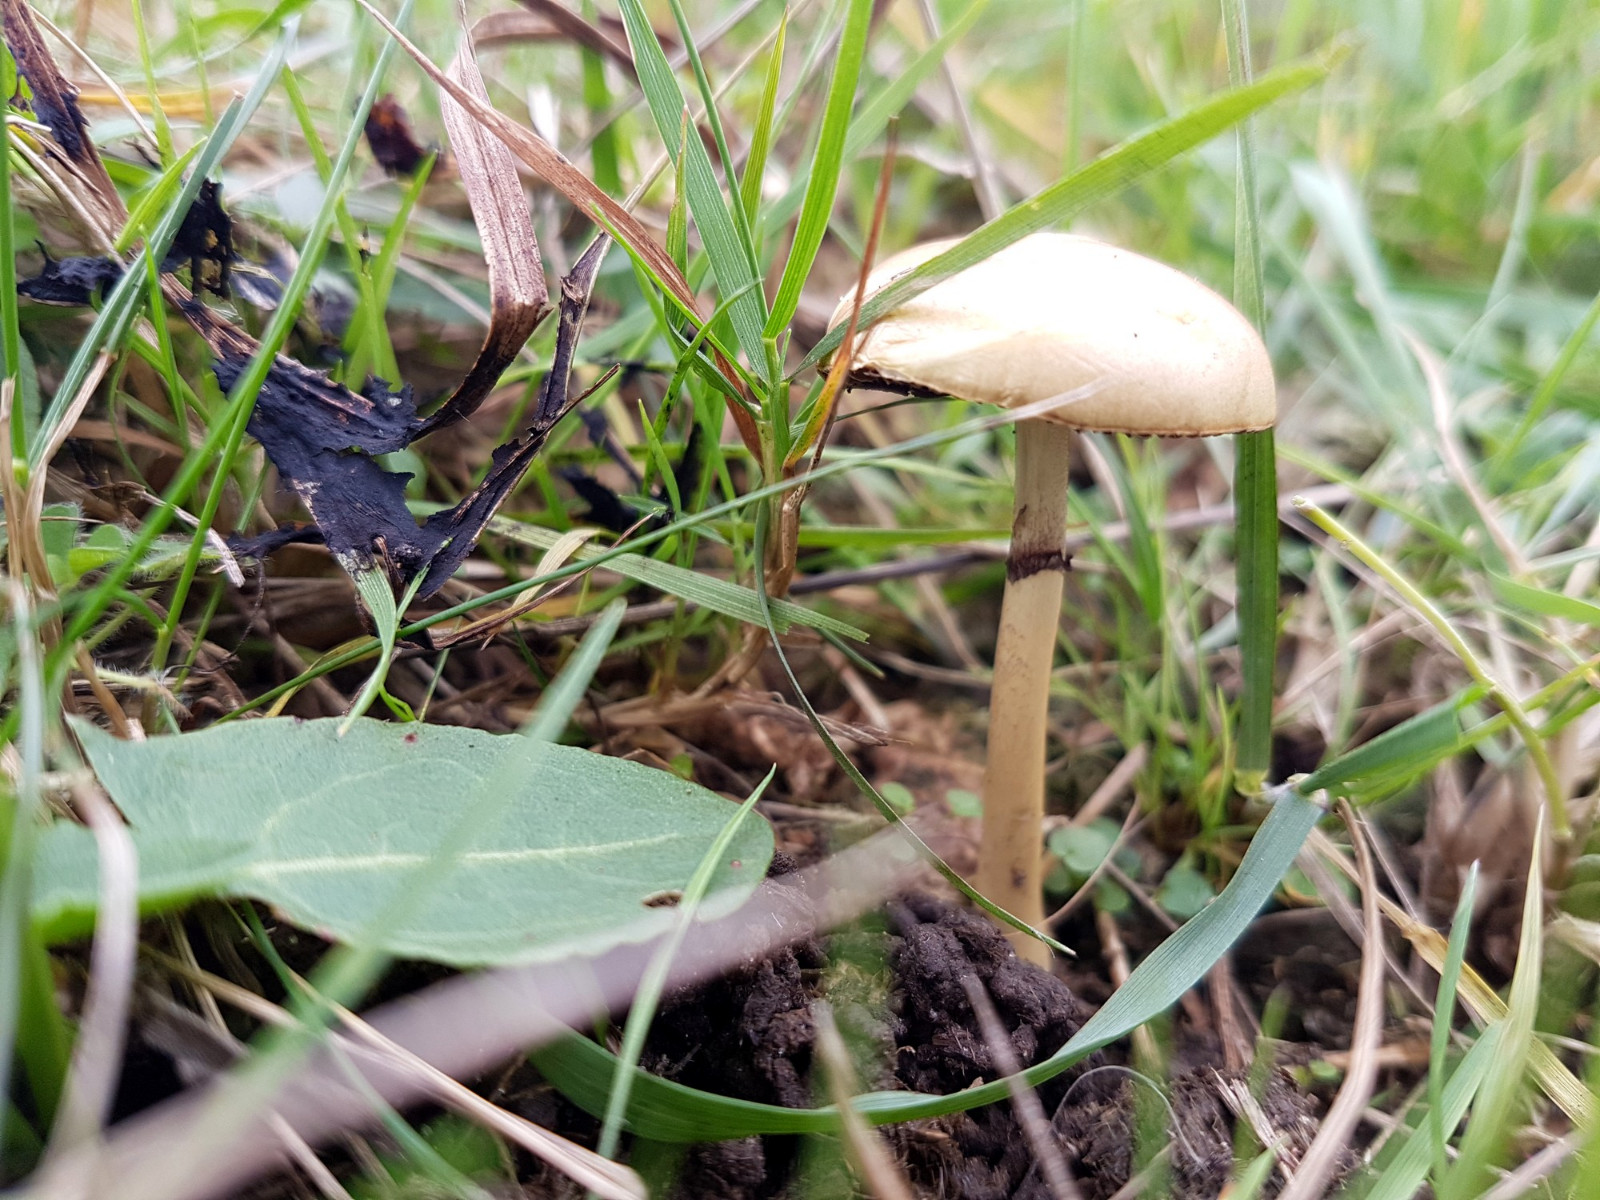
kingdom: Fungi
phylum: Basidiomycota
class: Agaricomycetes
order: Agaricales
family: Strophariaceae
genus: Protostropharia
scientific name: Protostropharia semiglobata
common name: halvkugleformet bredblad
